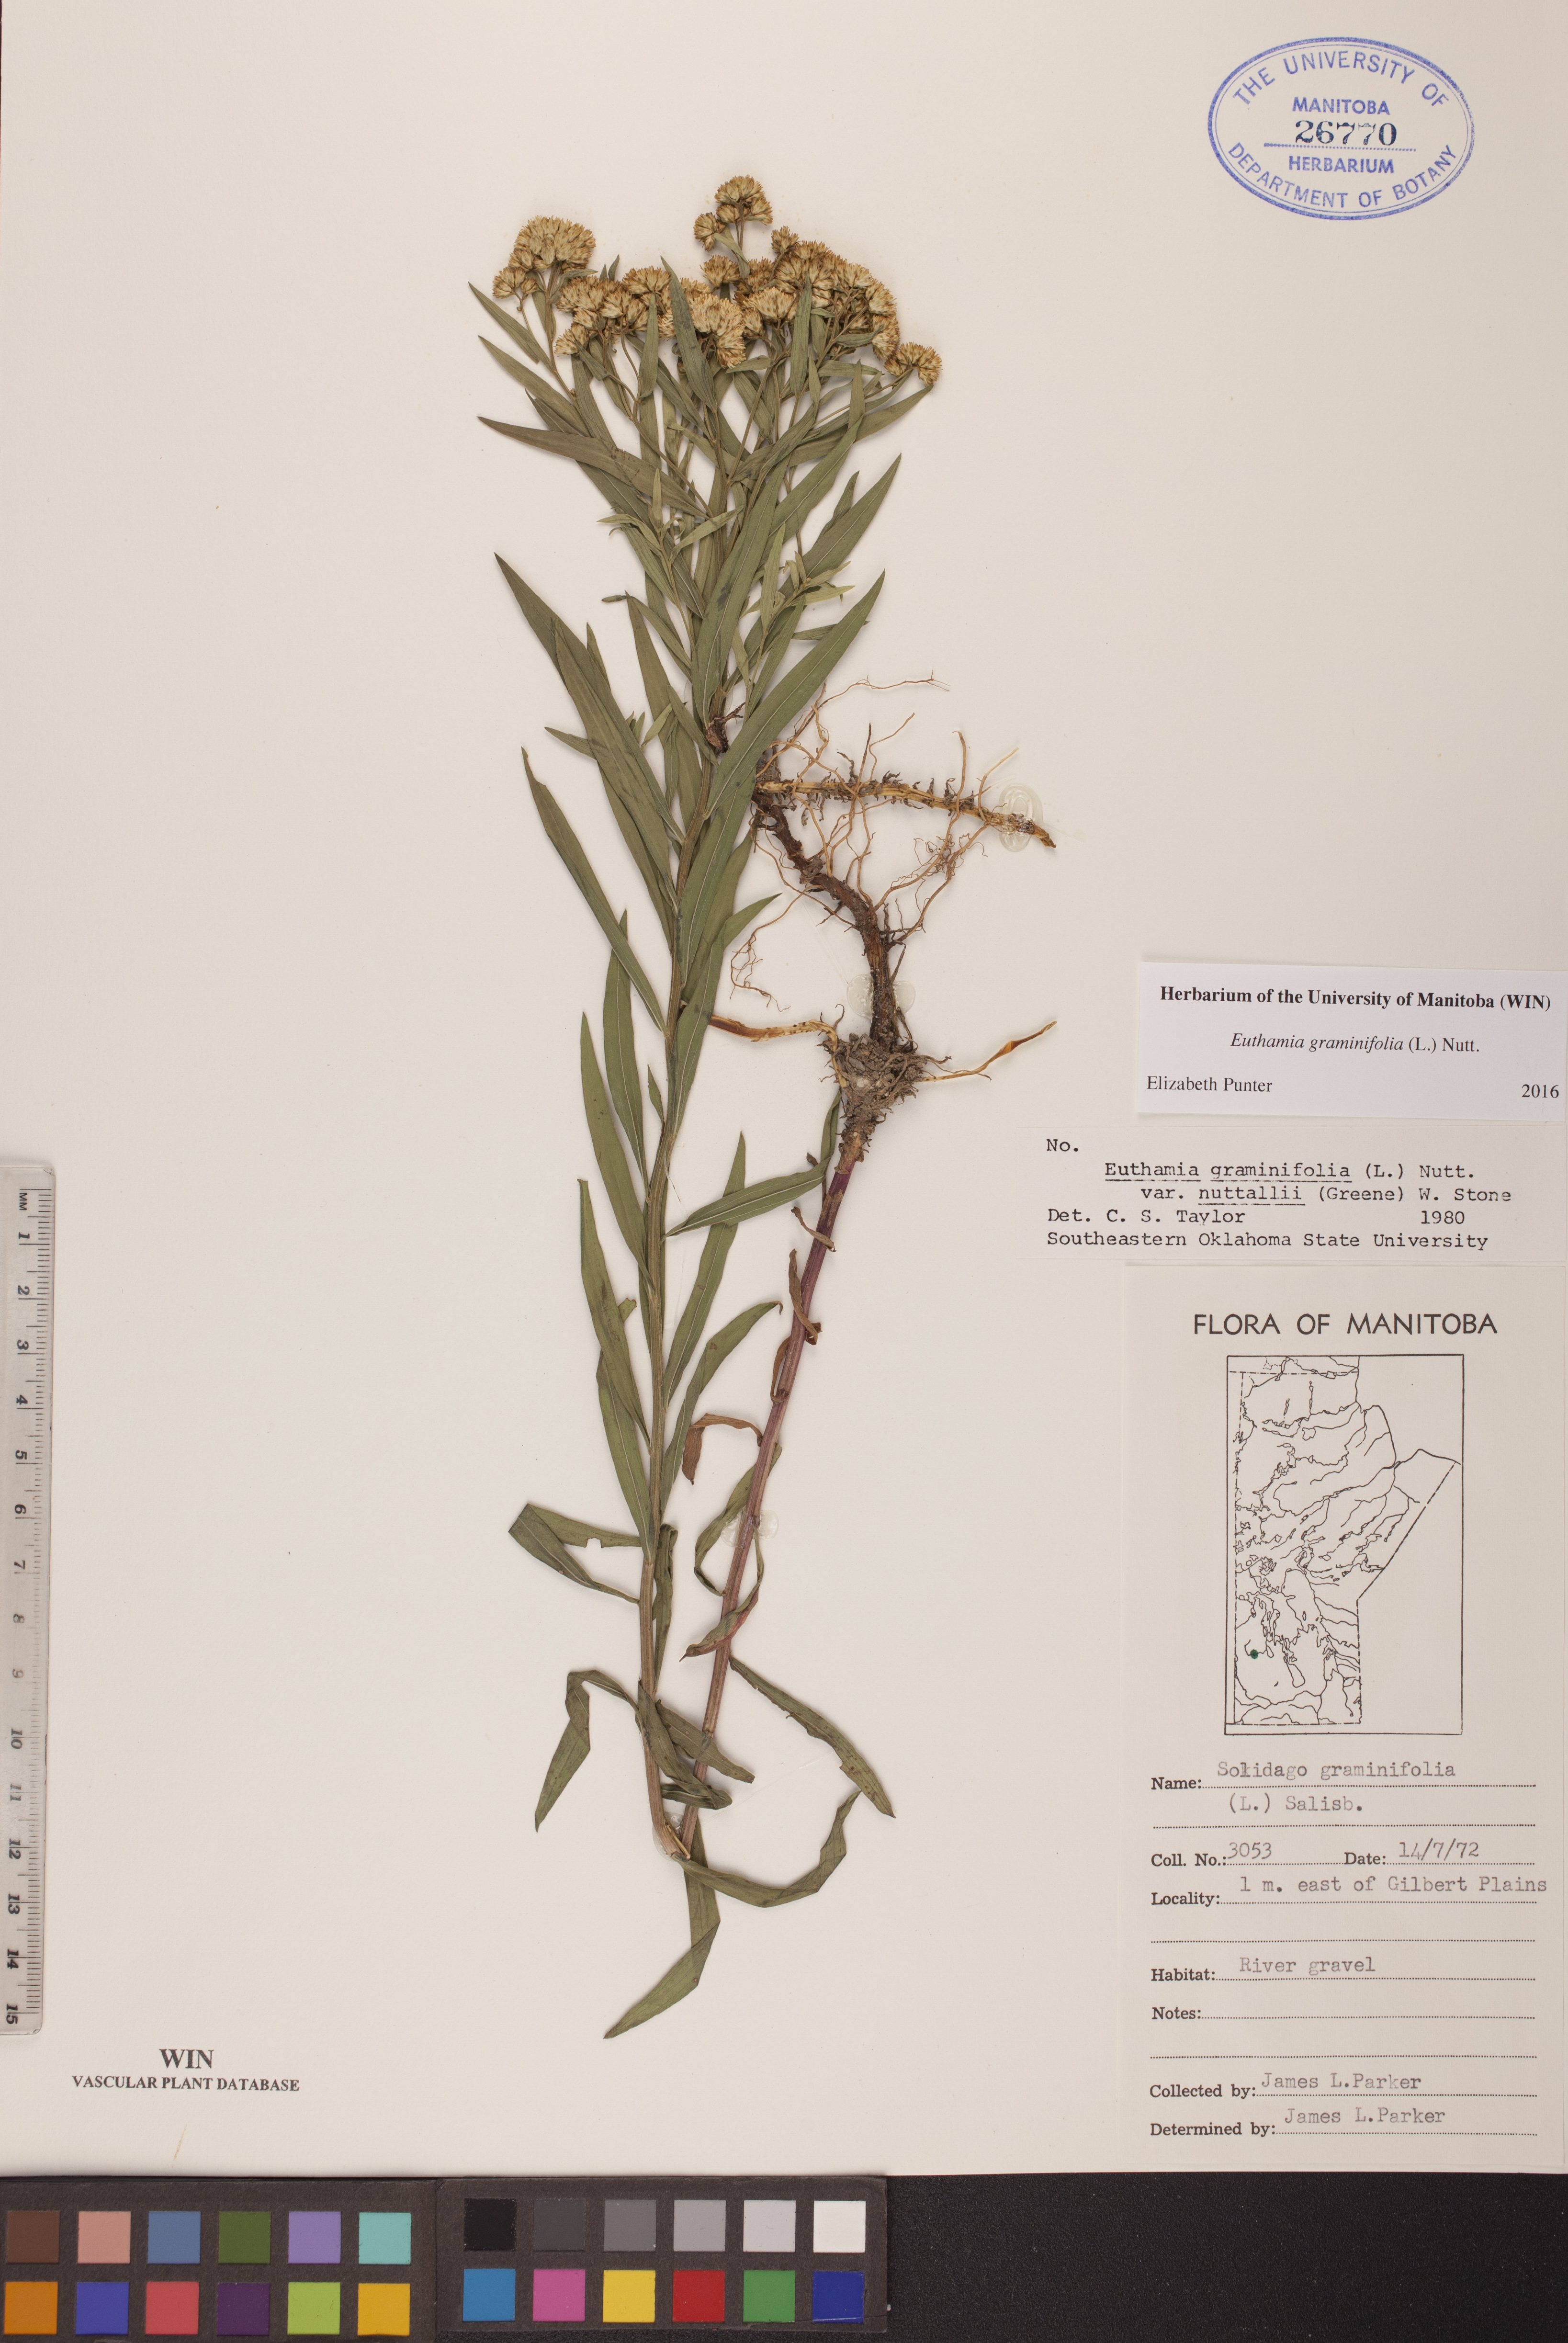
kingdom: Plantae
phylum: Tracheophyta
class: Magnoliopsida
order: Asterales
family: Asteraceae
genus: Euthamia
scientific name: Euthamia graminifolia
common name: Common goldentop
